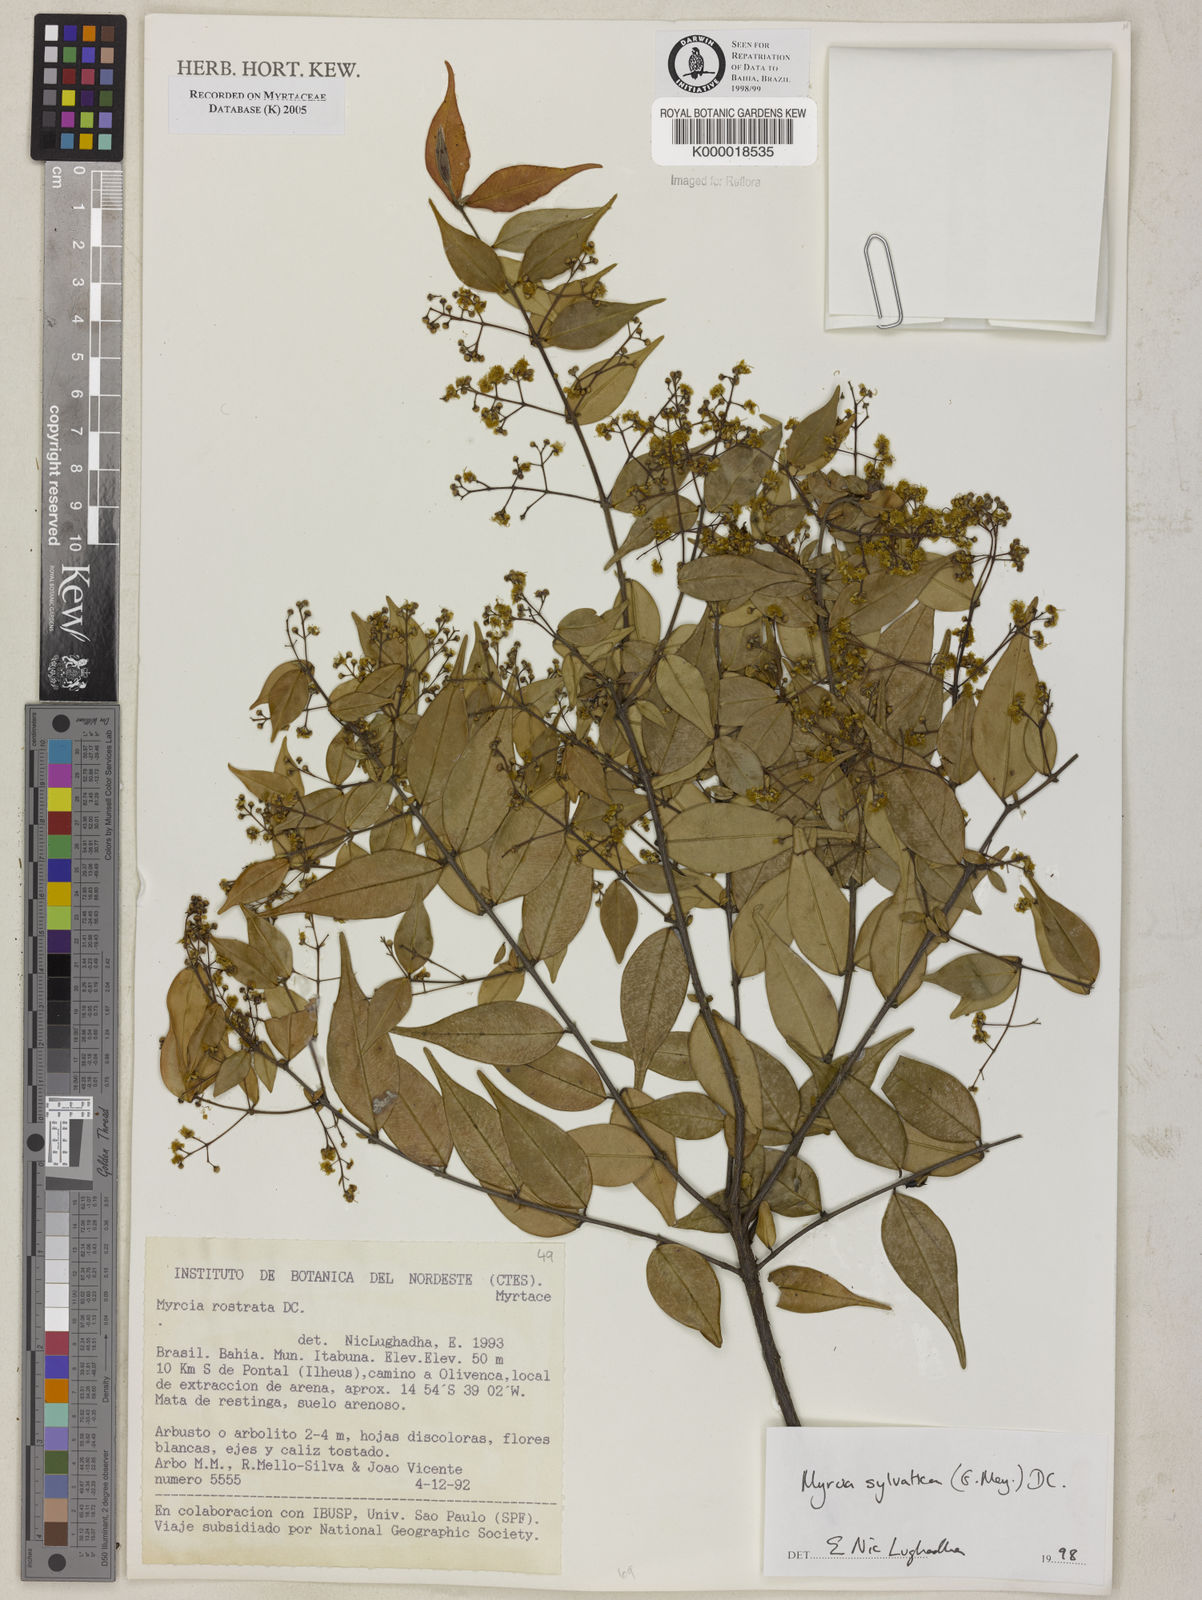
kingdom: Plantae
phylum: Tracheophyta
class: Magnoliopsida
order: Myrtales
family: Myrtaceae
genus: Myrcia
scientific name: Myrcia sylvatica
